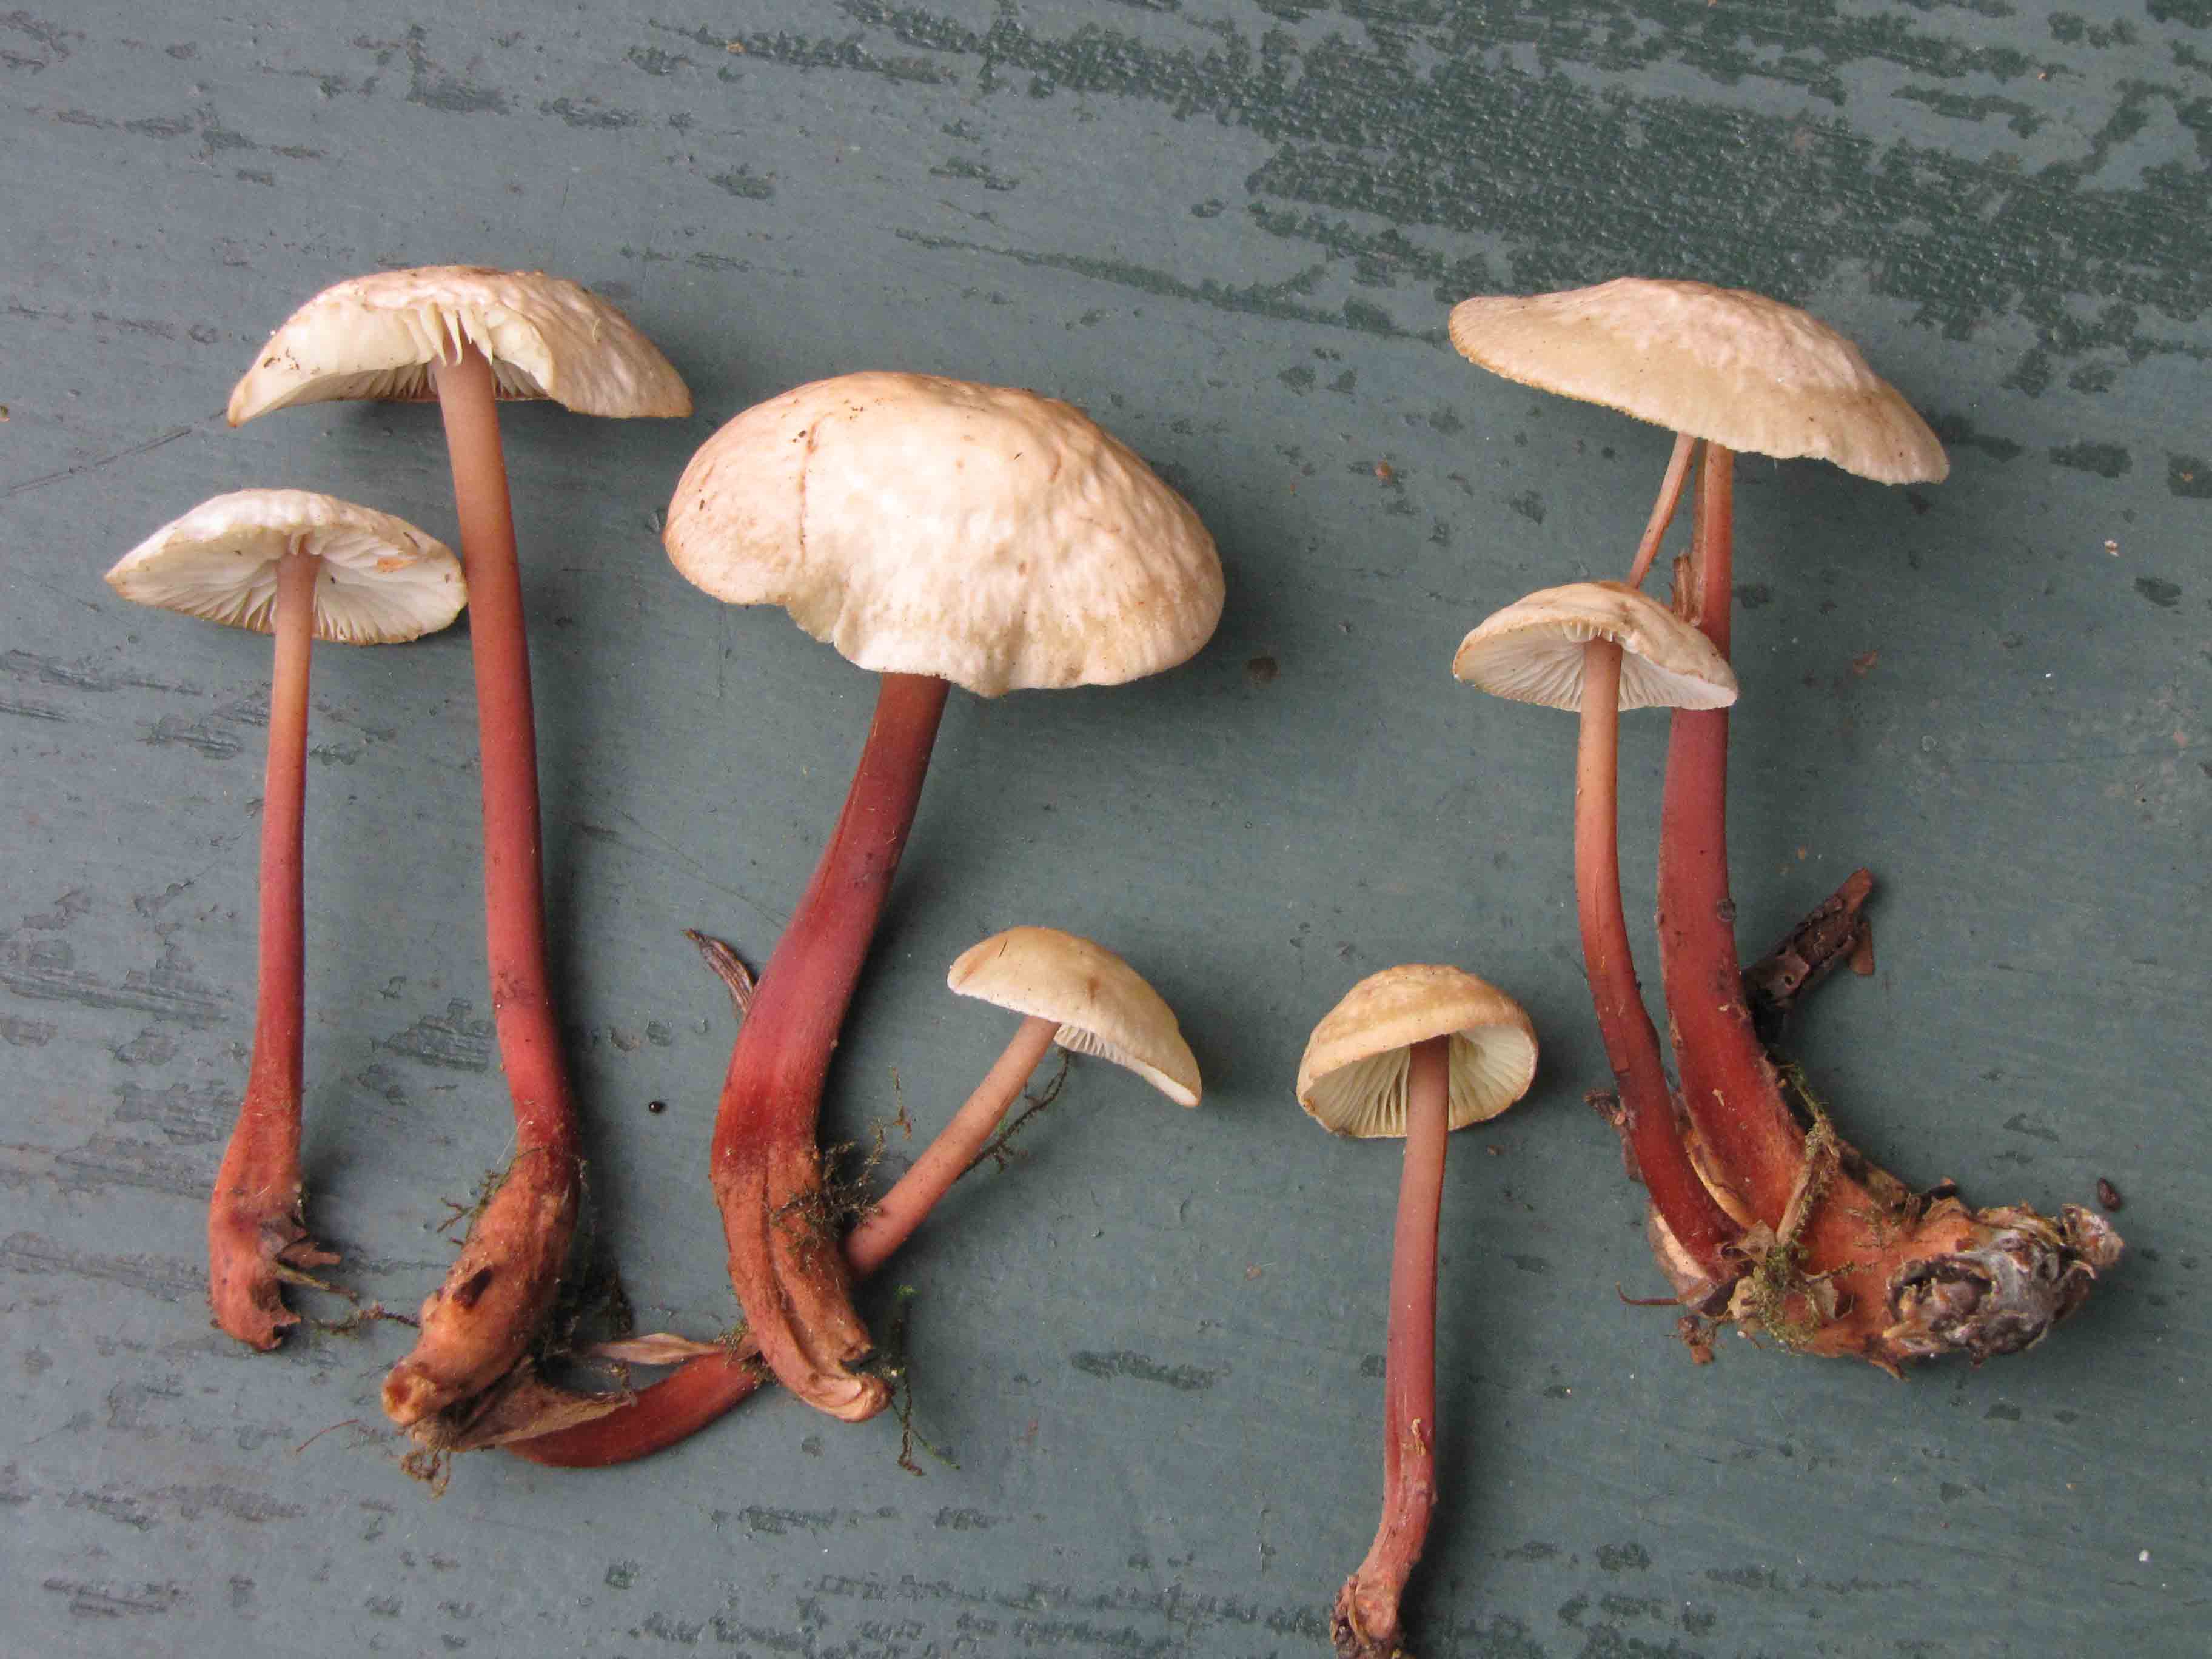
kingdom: Fungi
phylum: Basidiomycota
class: Agaricomycetes
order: Agaricales
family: Omphalotaceae
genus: Gymnopus
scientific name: Gymnopus erythropus
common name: rødstokket fladhat
